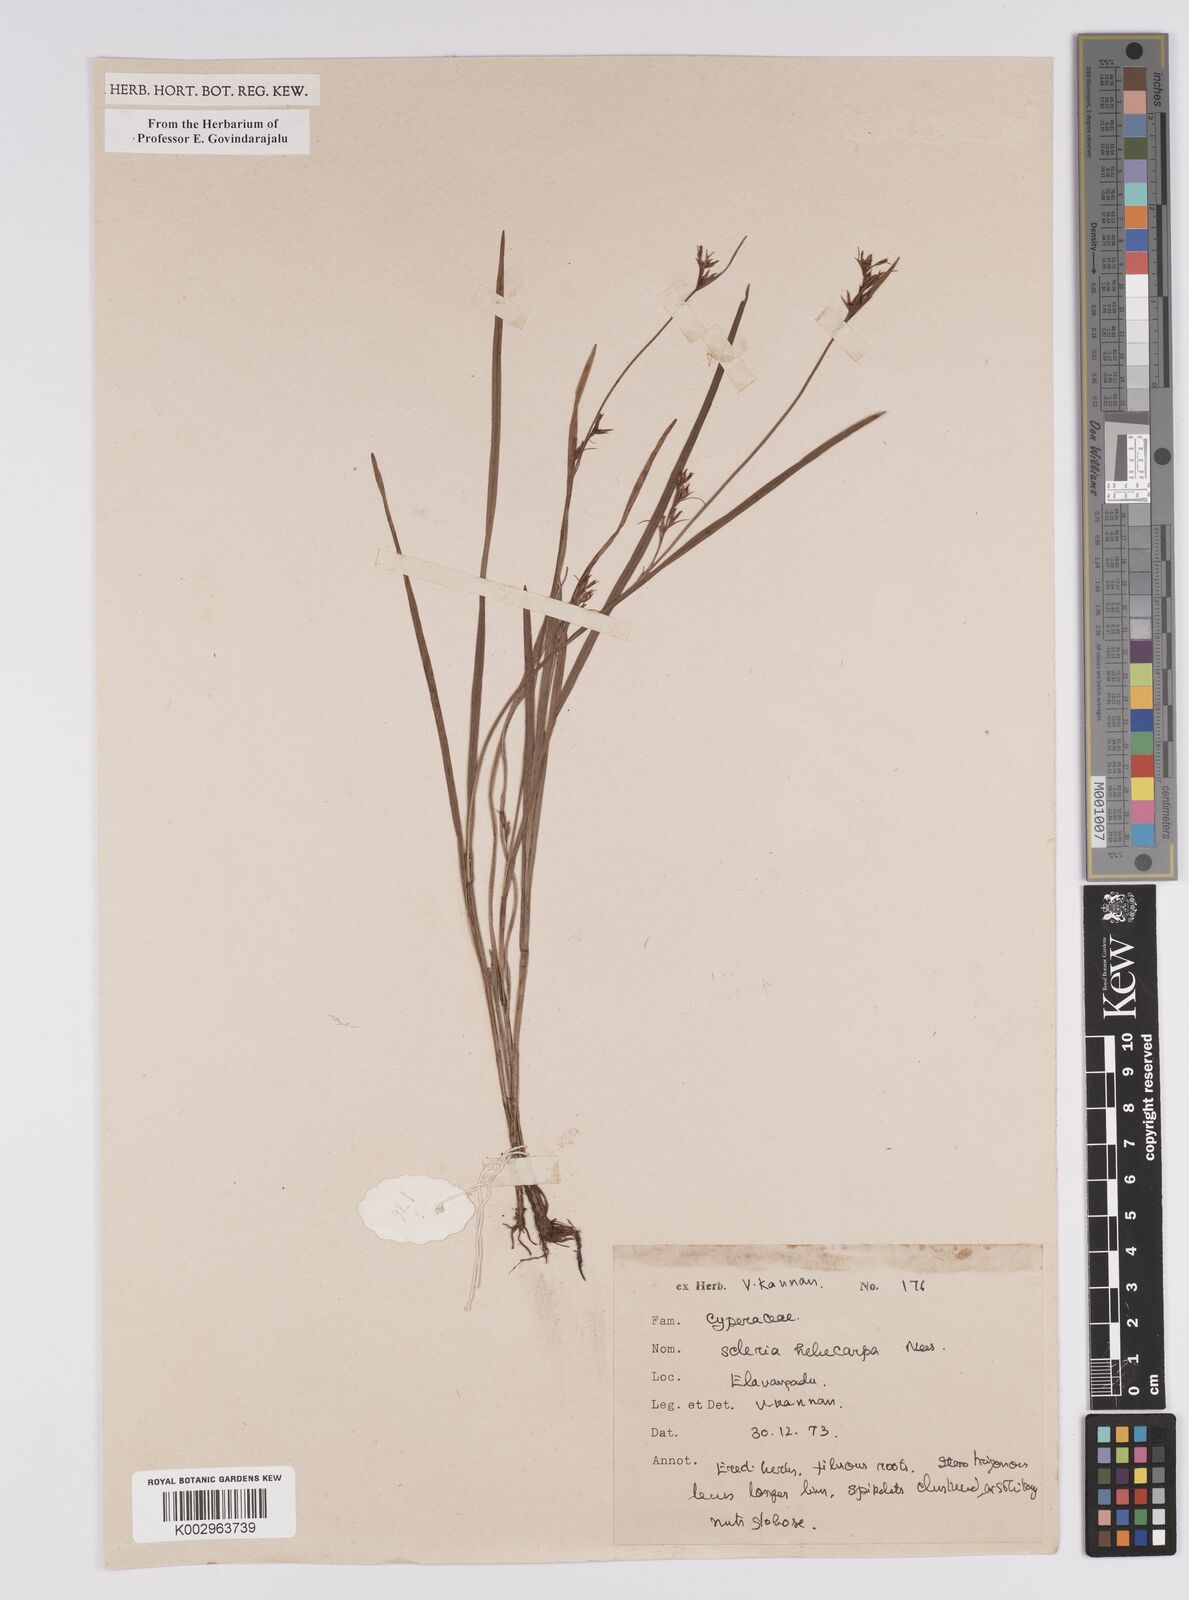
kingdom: Plantae
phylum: Tracheophyta
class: Liliopsida
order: Poales
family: Cyperaceae
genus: Scleria
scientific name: Scleria levis
